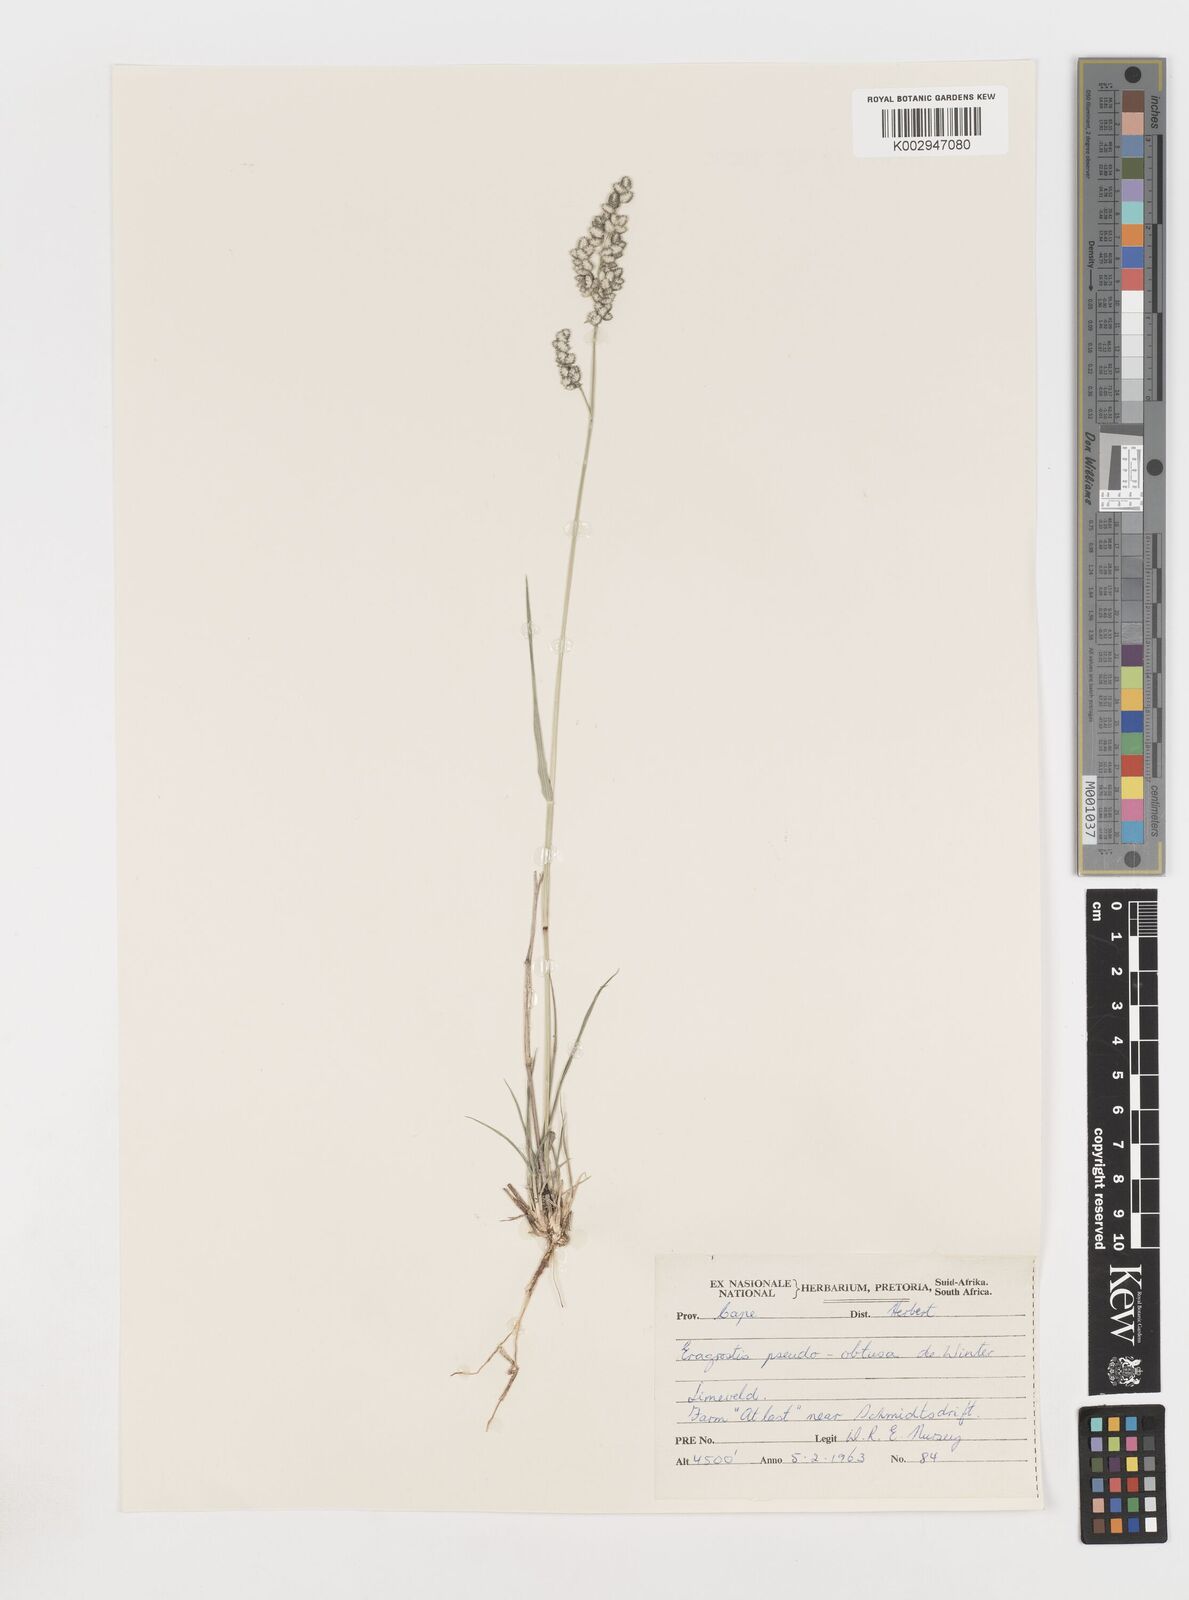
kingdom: Plantae
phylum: Tracheophyta
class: Liliopsida
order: Poales
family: Poaceae
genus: Eragrostis
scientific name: Eragrostis pseudobtusa
